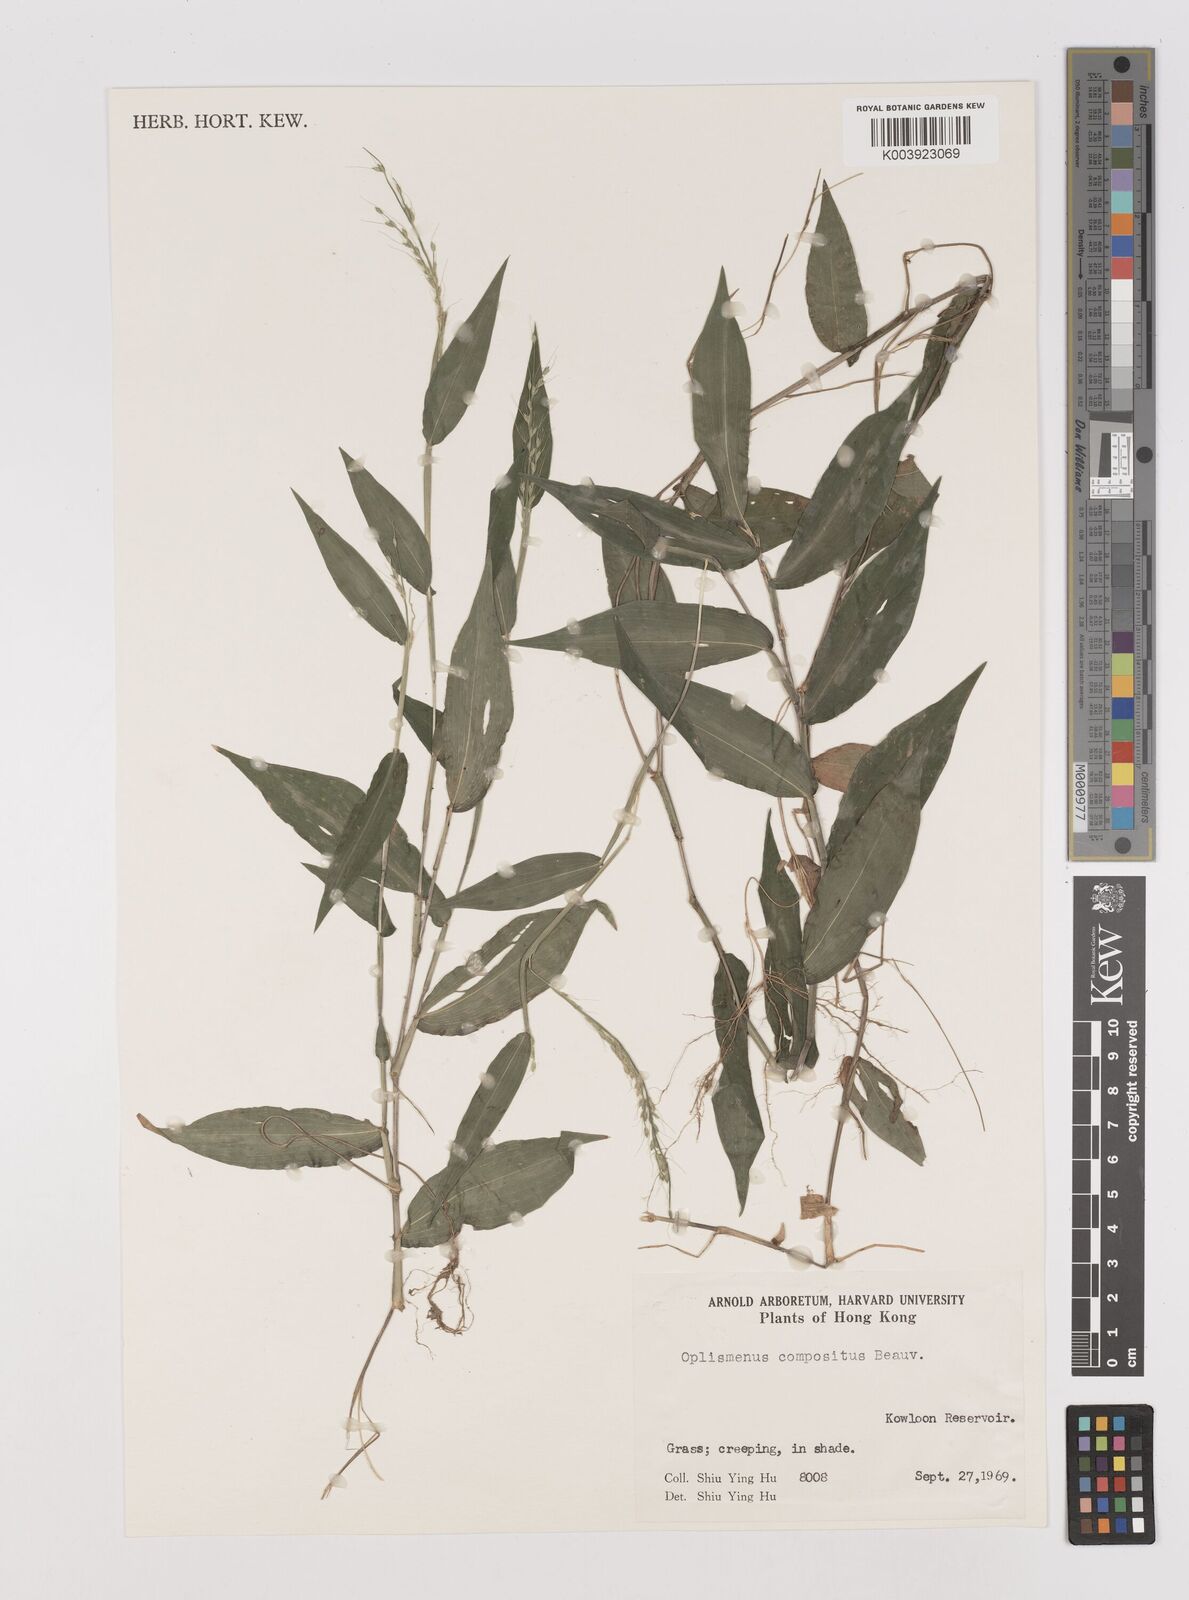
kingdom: Plantae
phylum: Tracheophyta
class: Liliopsida
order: Poales
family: Poaceae
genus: Oplismenus
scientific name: Oplismenus compositus
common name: Running mountain grass
